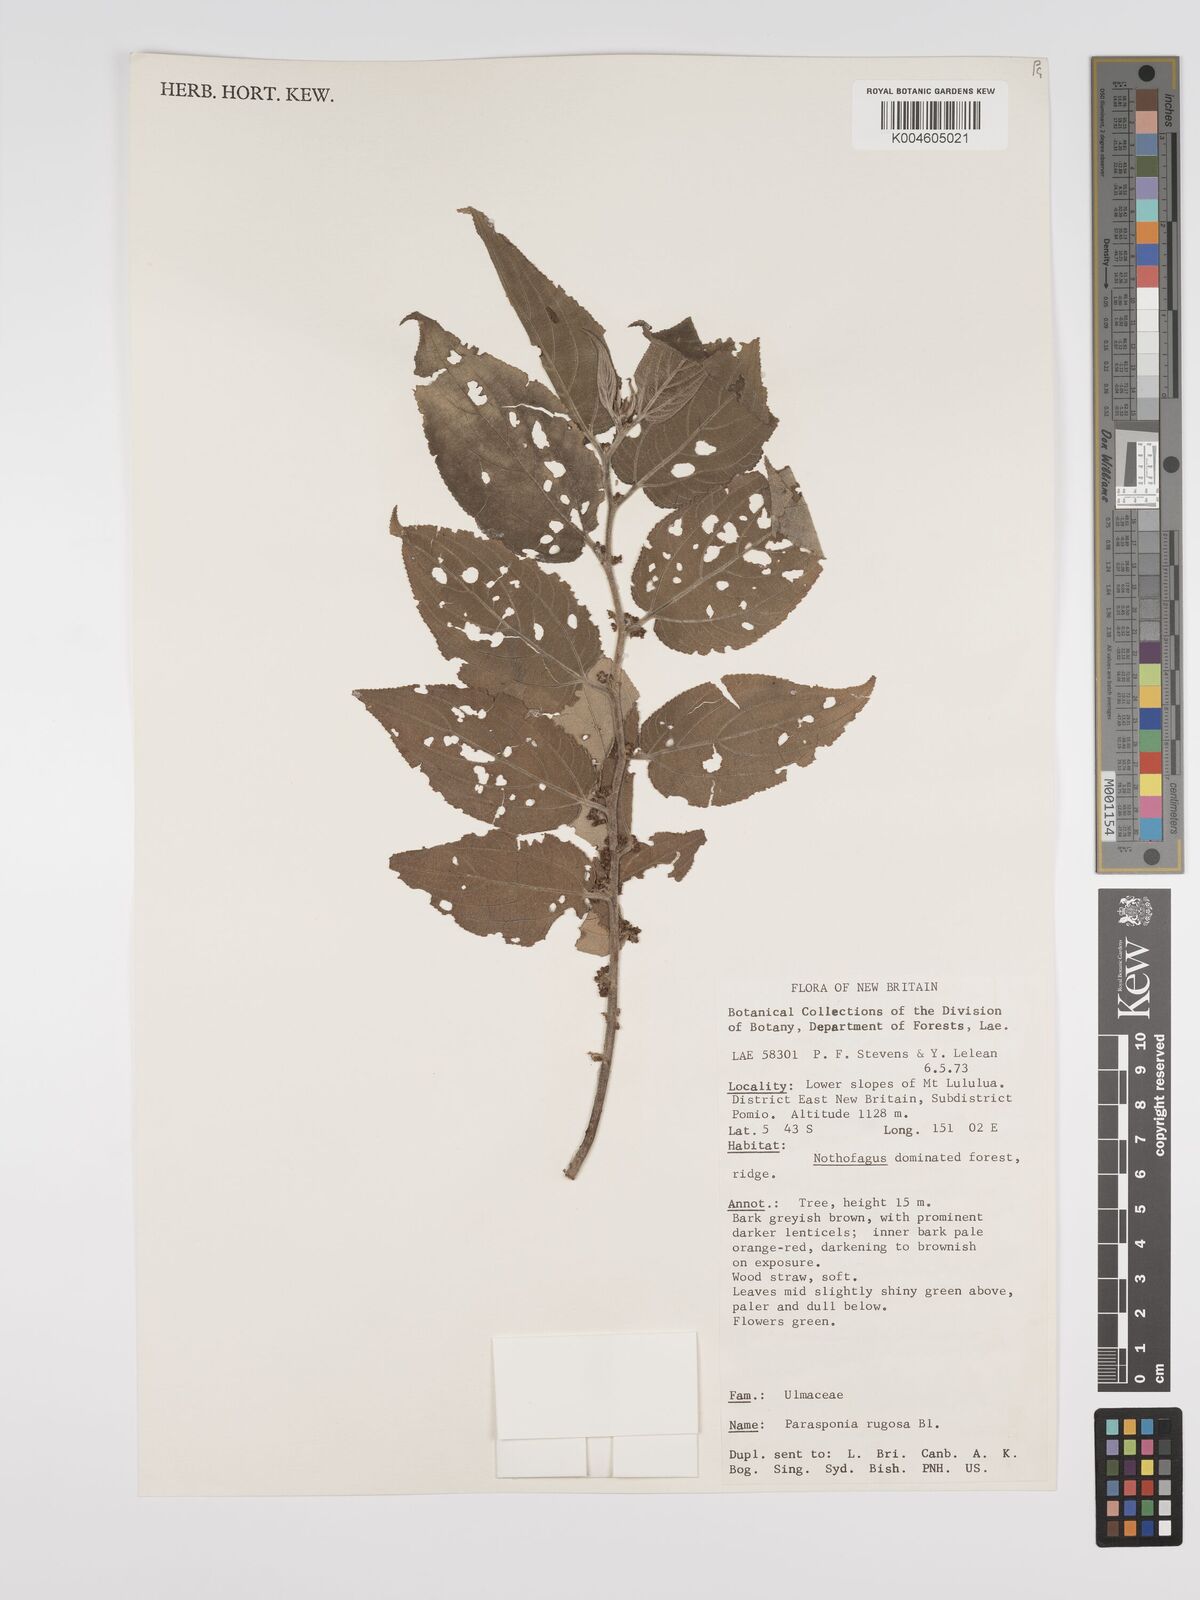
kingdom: Plantae
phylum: Tracheophyta
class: Magnoliopsida
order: Rosales
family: Cannabaceae
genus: Trema
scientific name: Trema eurhynchum
